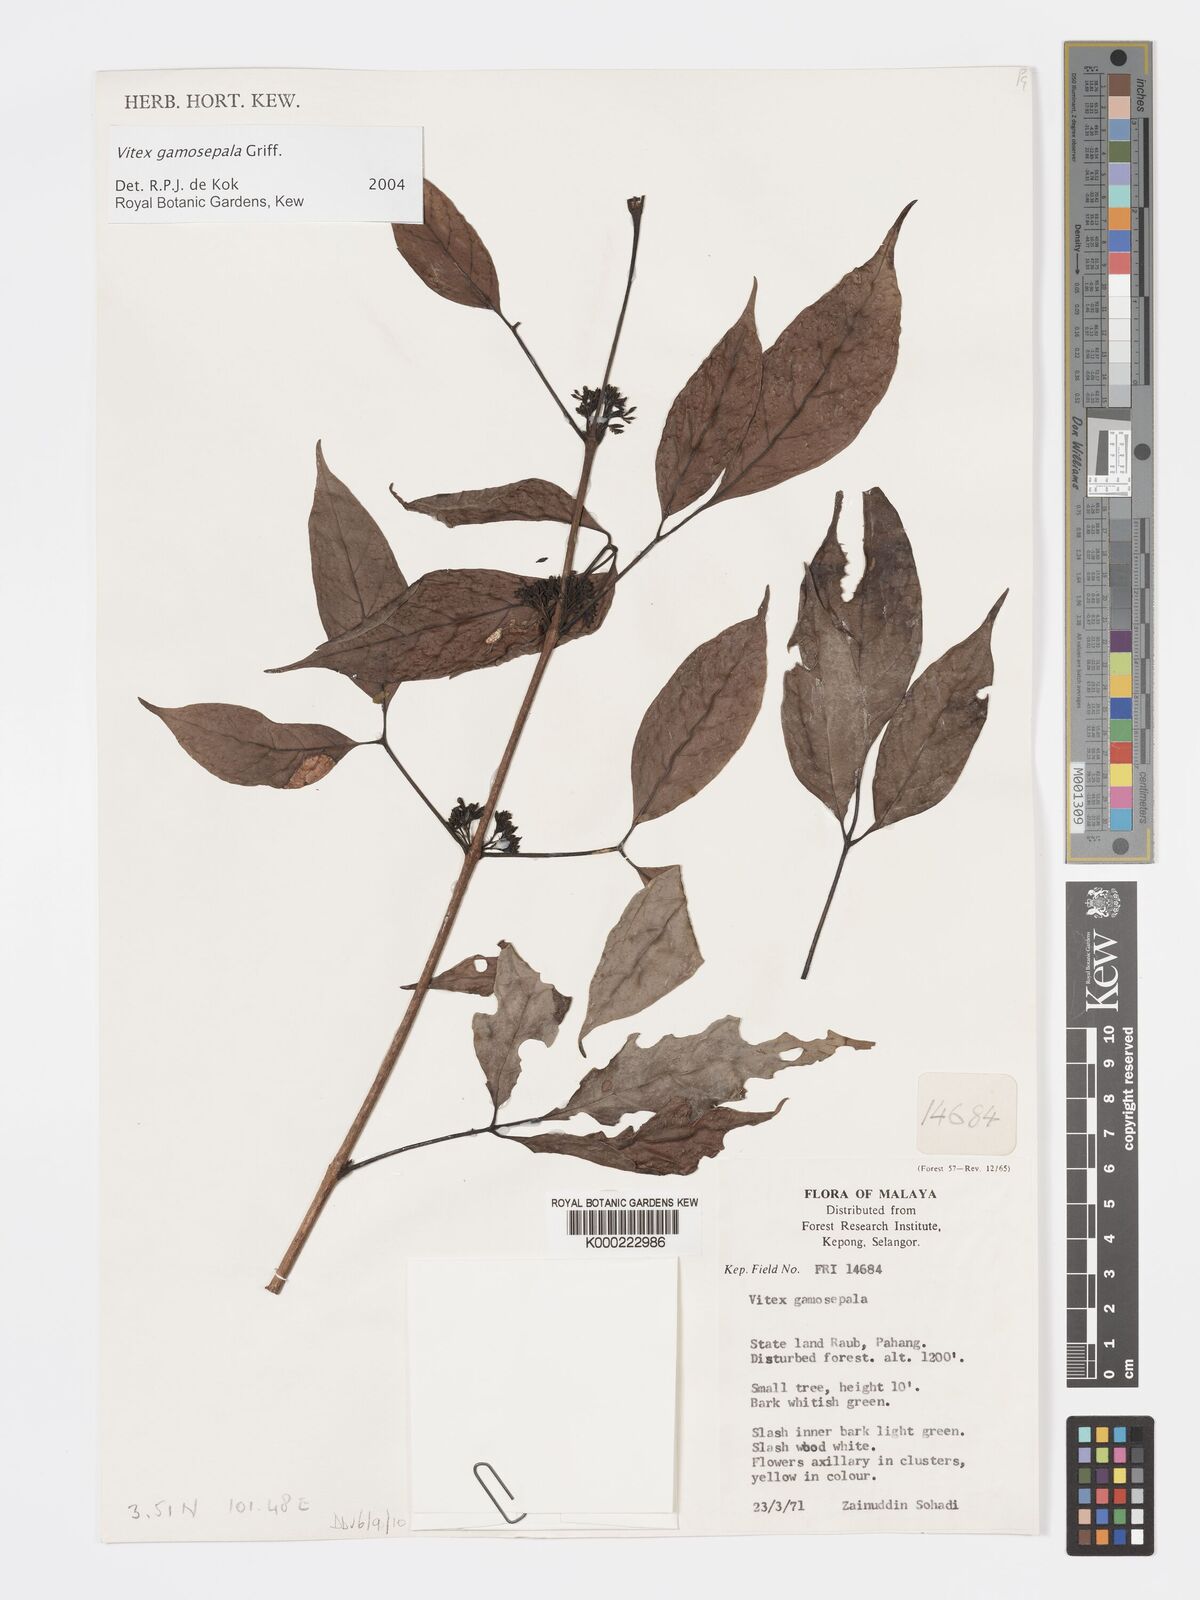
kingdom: Plantae
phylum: Tracheophyta
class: Magnoliopsida
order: Lamiales
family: Lamiaceae
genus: Vitex
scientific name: Vitex gamosepala
